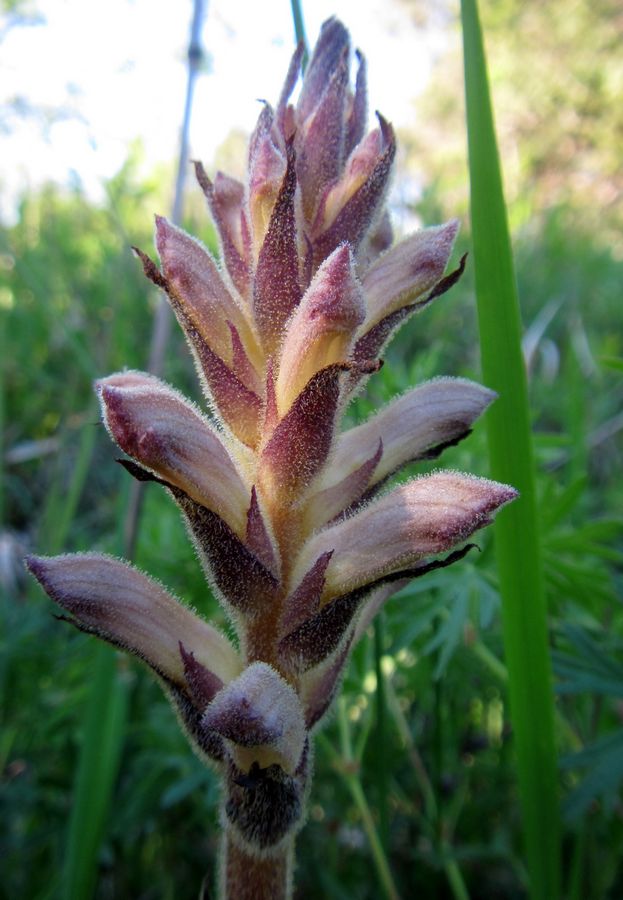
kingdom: Plantae
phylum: Tracheophyta
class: Magnoliopsida
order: Lamiales
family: Orobanchaceae
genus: Orobanche
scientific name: Orobanche
